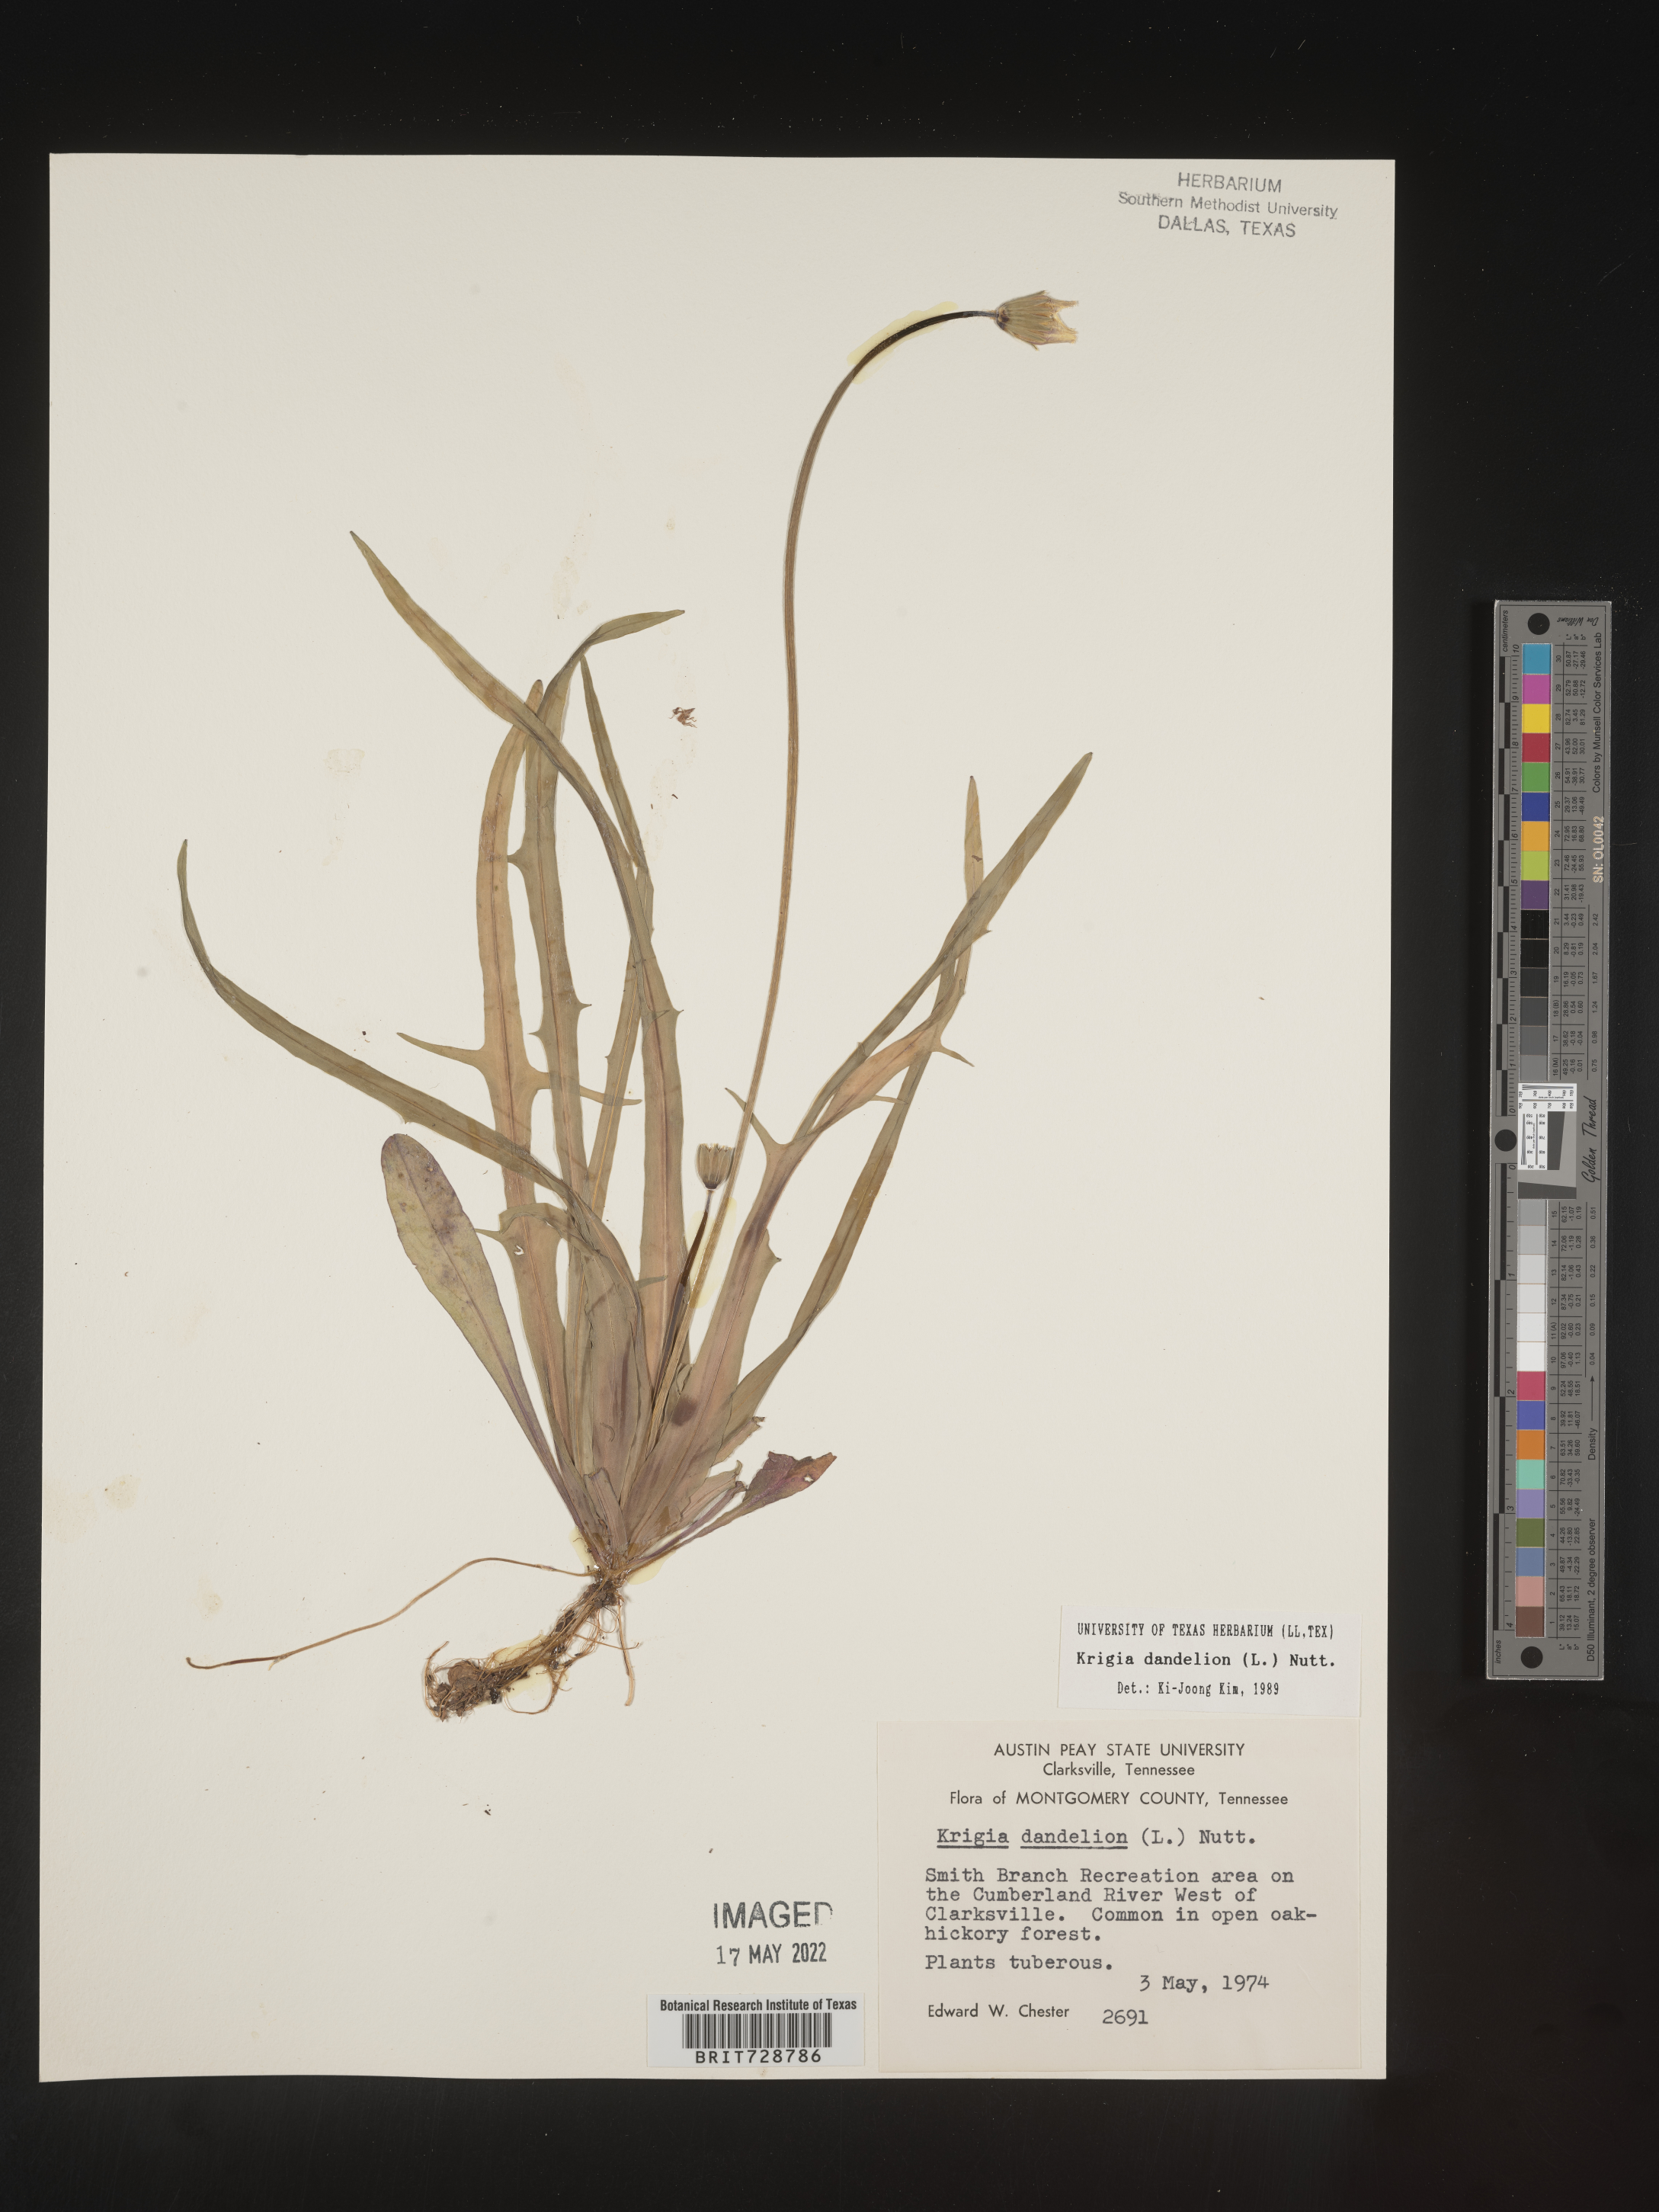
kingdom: Plantae
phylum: Tracheophyta
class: Magnoliopsida
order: Asterales
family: Asteraceae
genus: Krigia
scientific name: Krigia dandelion
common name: Colonial dwarf-dandelion
